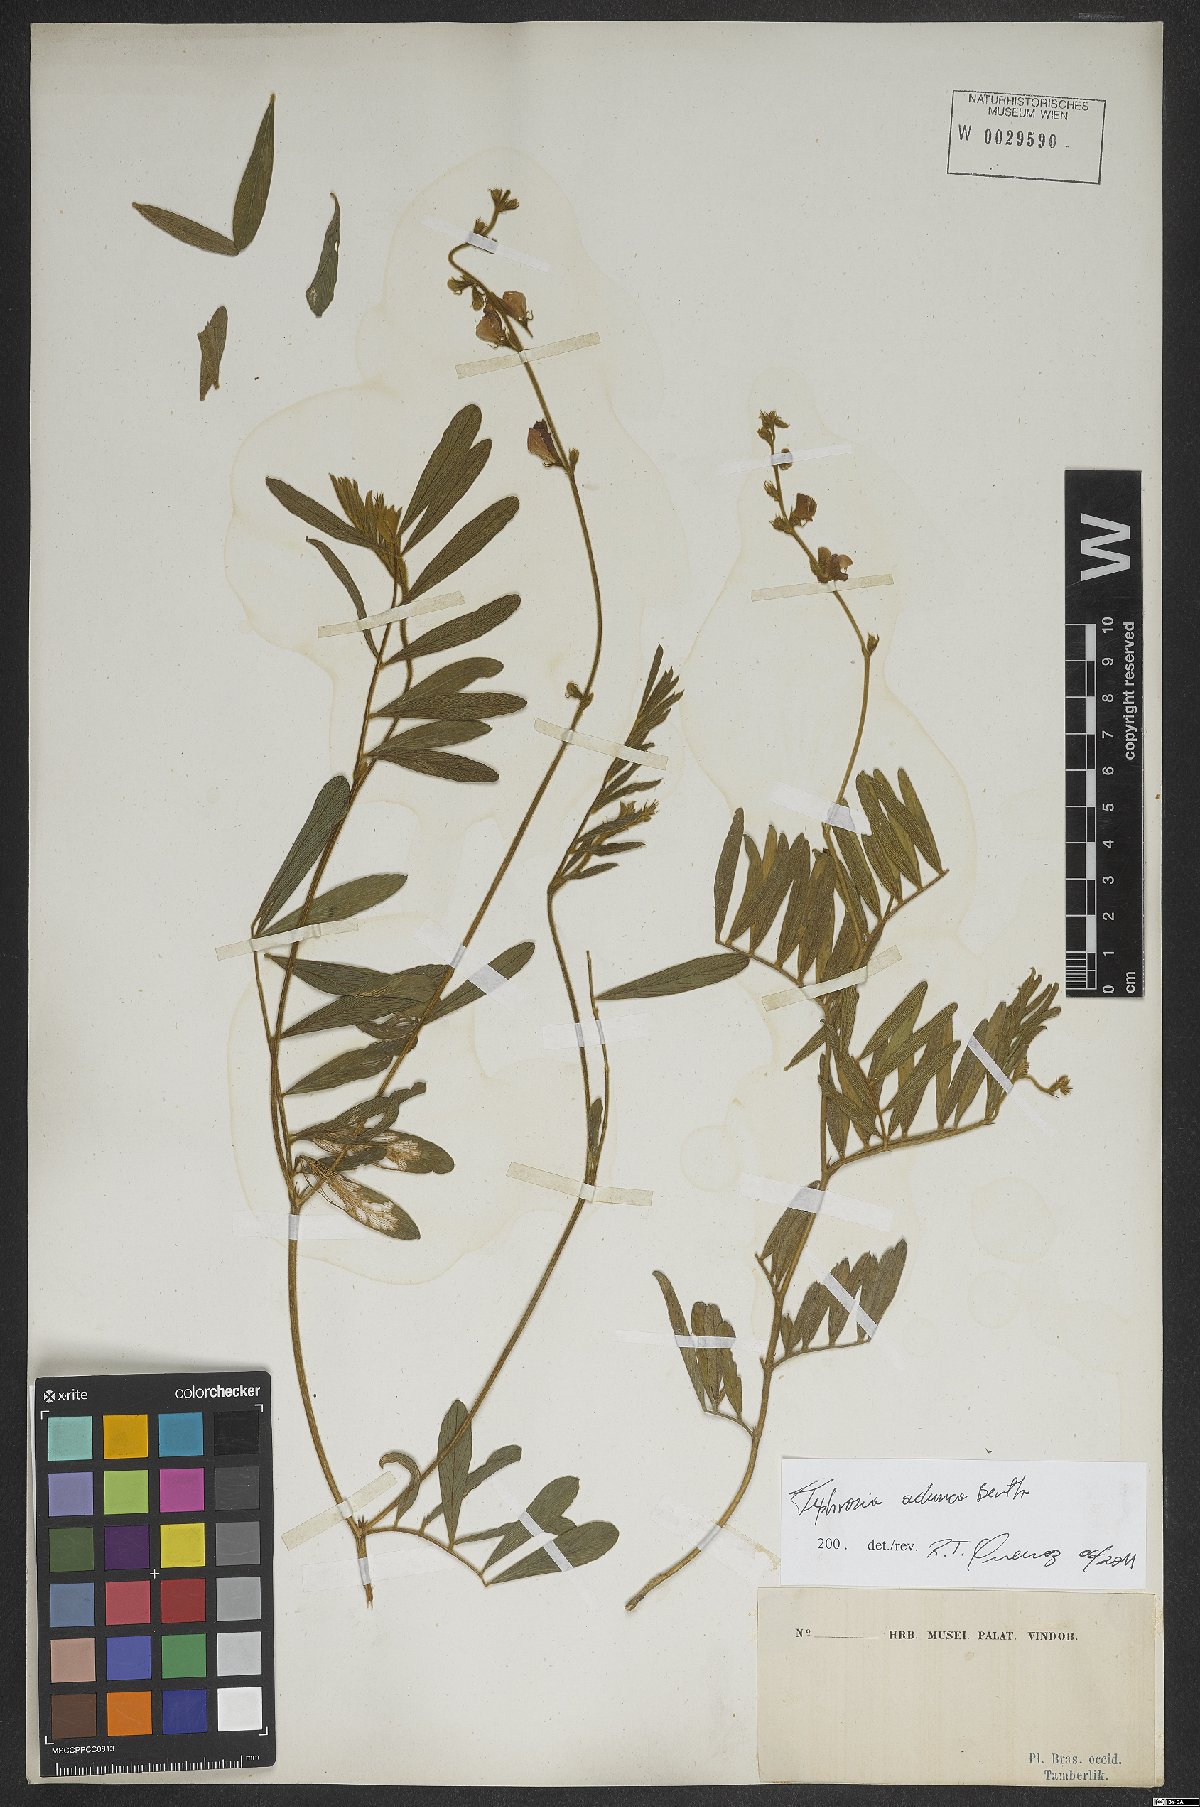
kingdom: Plantae
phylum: Tracheophyta
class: Magnoliopsida
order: Fabales
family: Fabaceae
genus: Tephrosia
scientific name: Tephrosia adunca
